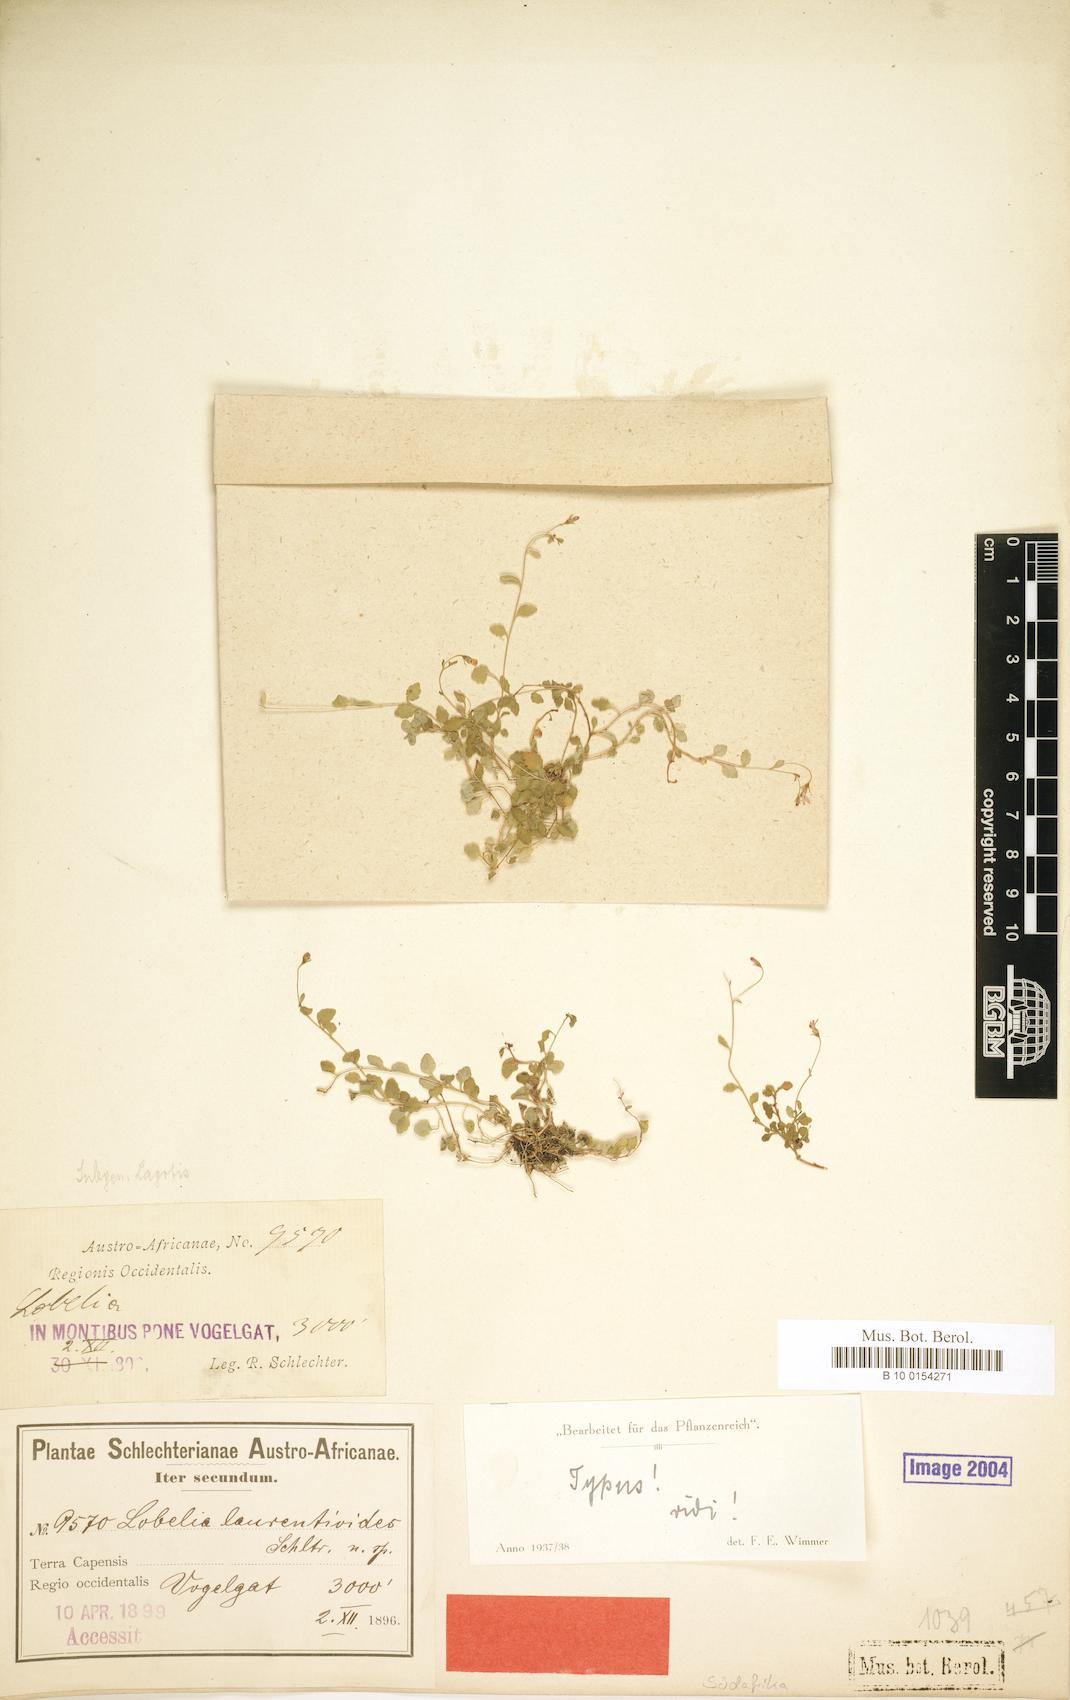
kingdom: Plantae
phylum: Tracheophyta
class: Magnoliopsida
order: Asterales
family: Campanulaceae
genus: Lobelia
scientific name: Lobelia laurentioides
